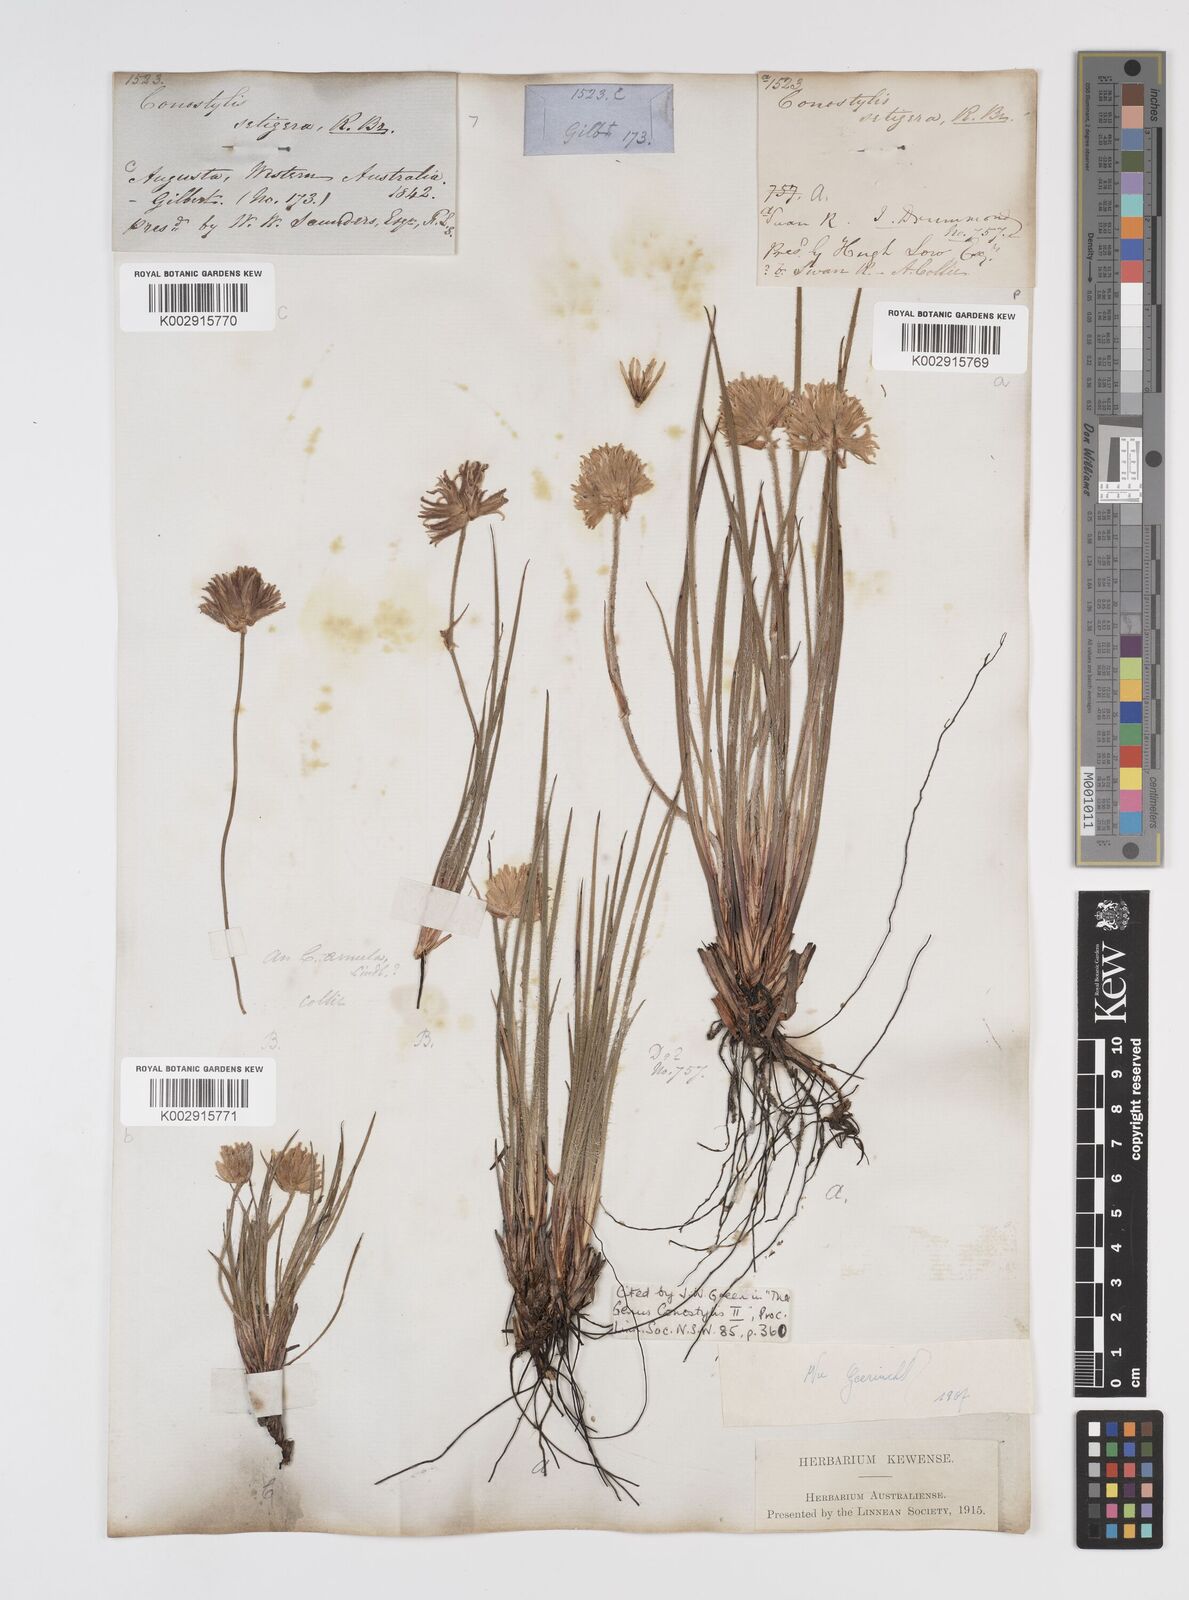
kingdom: Plantae
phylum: Tracheophyta
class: Liliopsida
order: Commelinales
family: Haemodoraceae
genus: Conostylis
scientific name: Conostylis setigera
